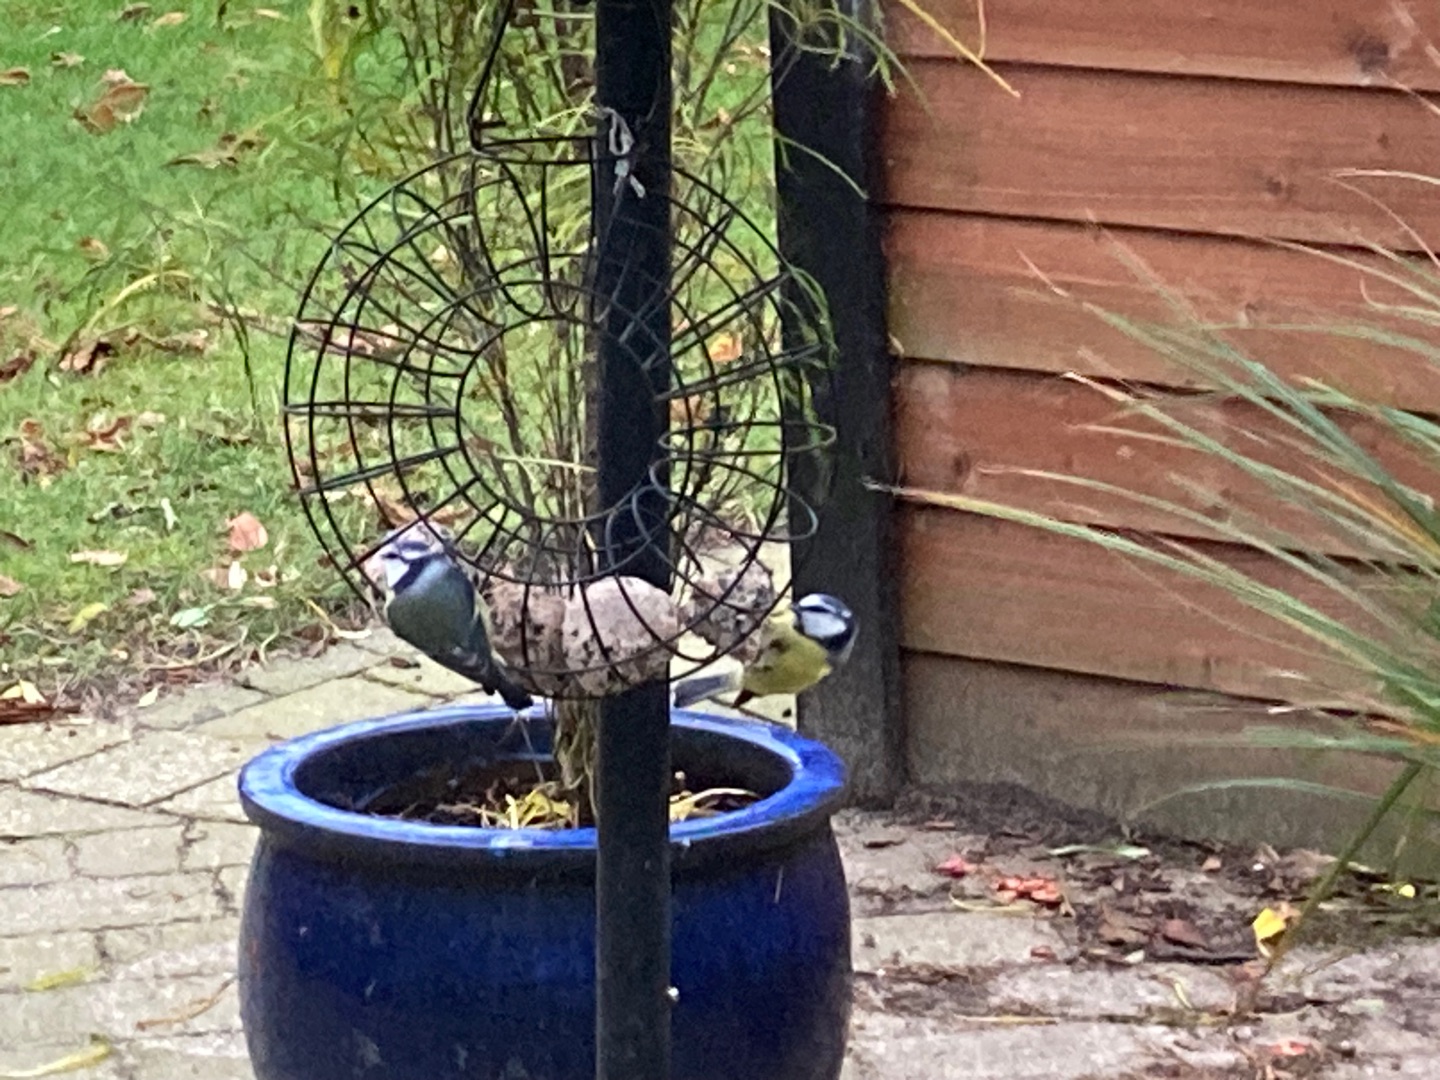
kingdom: Animalia
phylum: Chordata
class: Aves
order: Passeriformes
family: Paridae
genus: Cyanistes
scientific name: Cyanistes caeruleus
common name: Blåmejse
